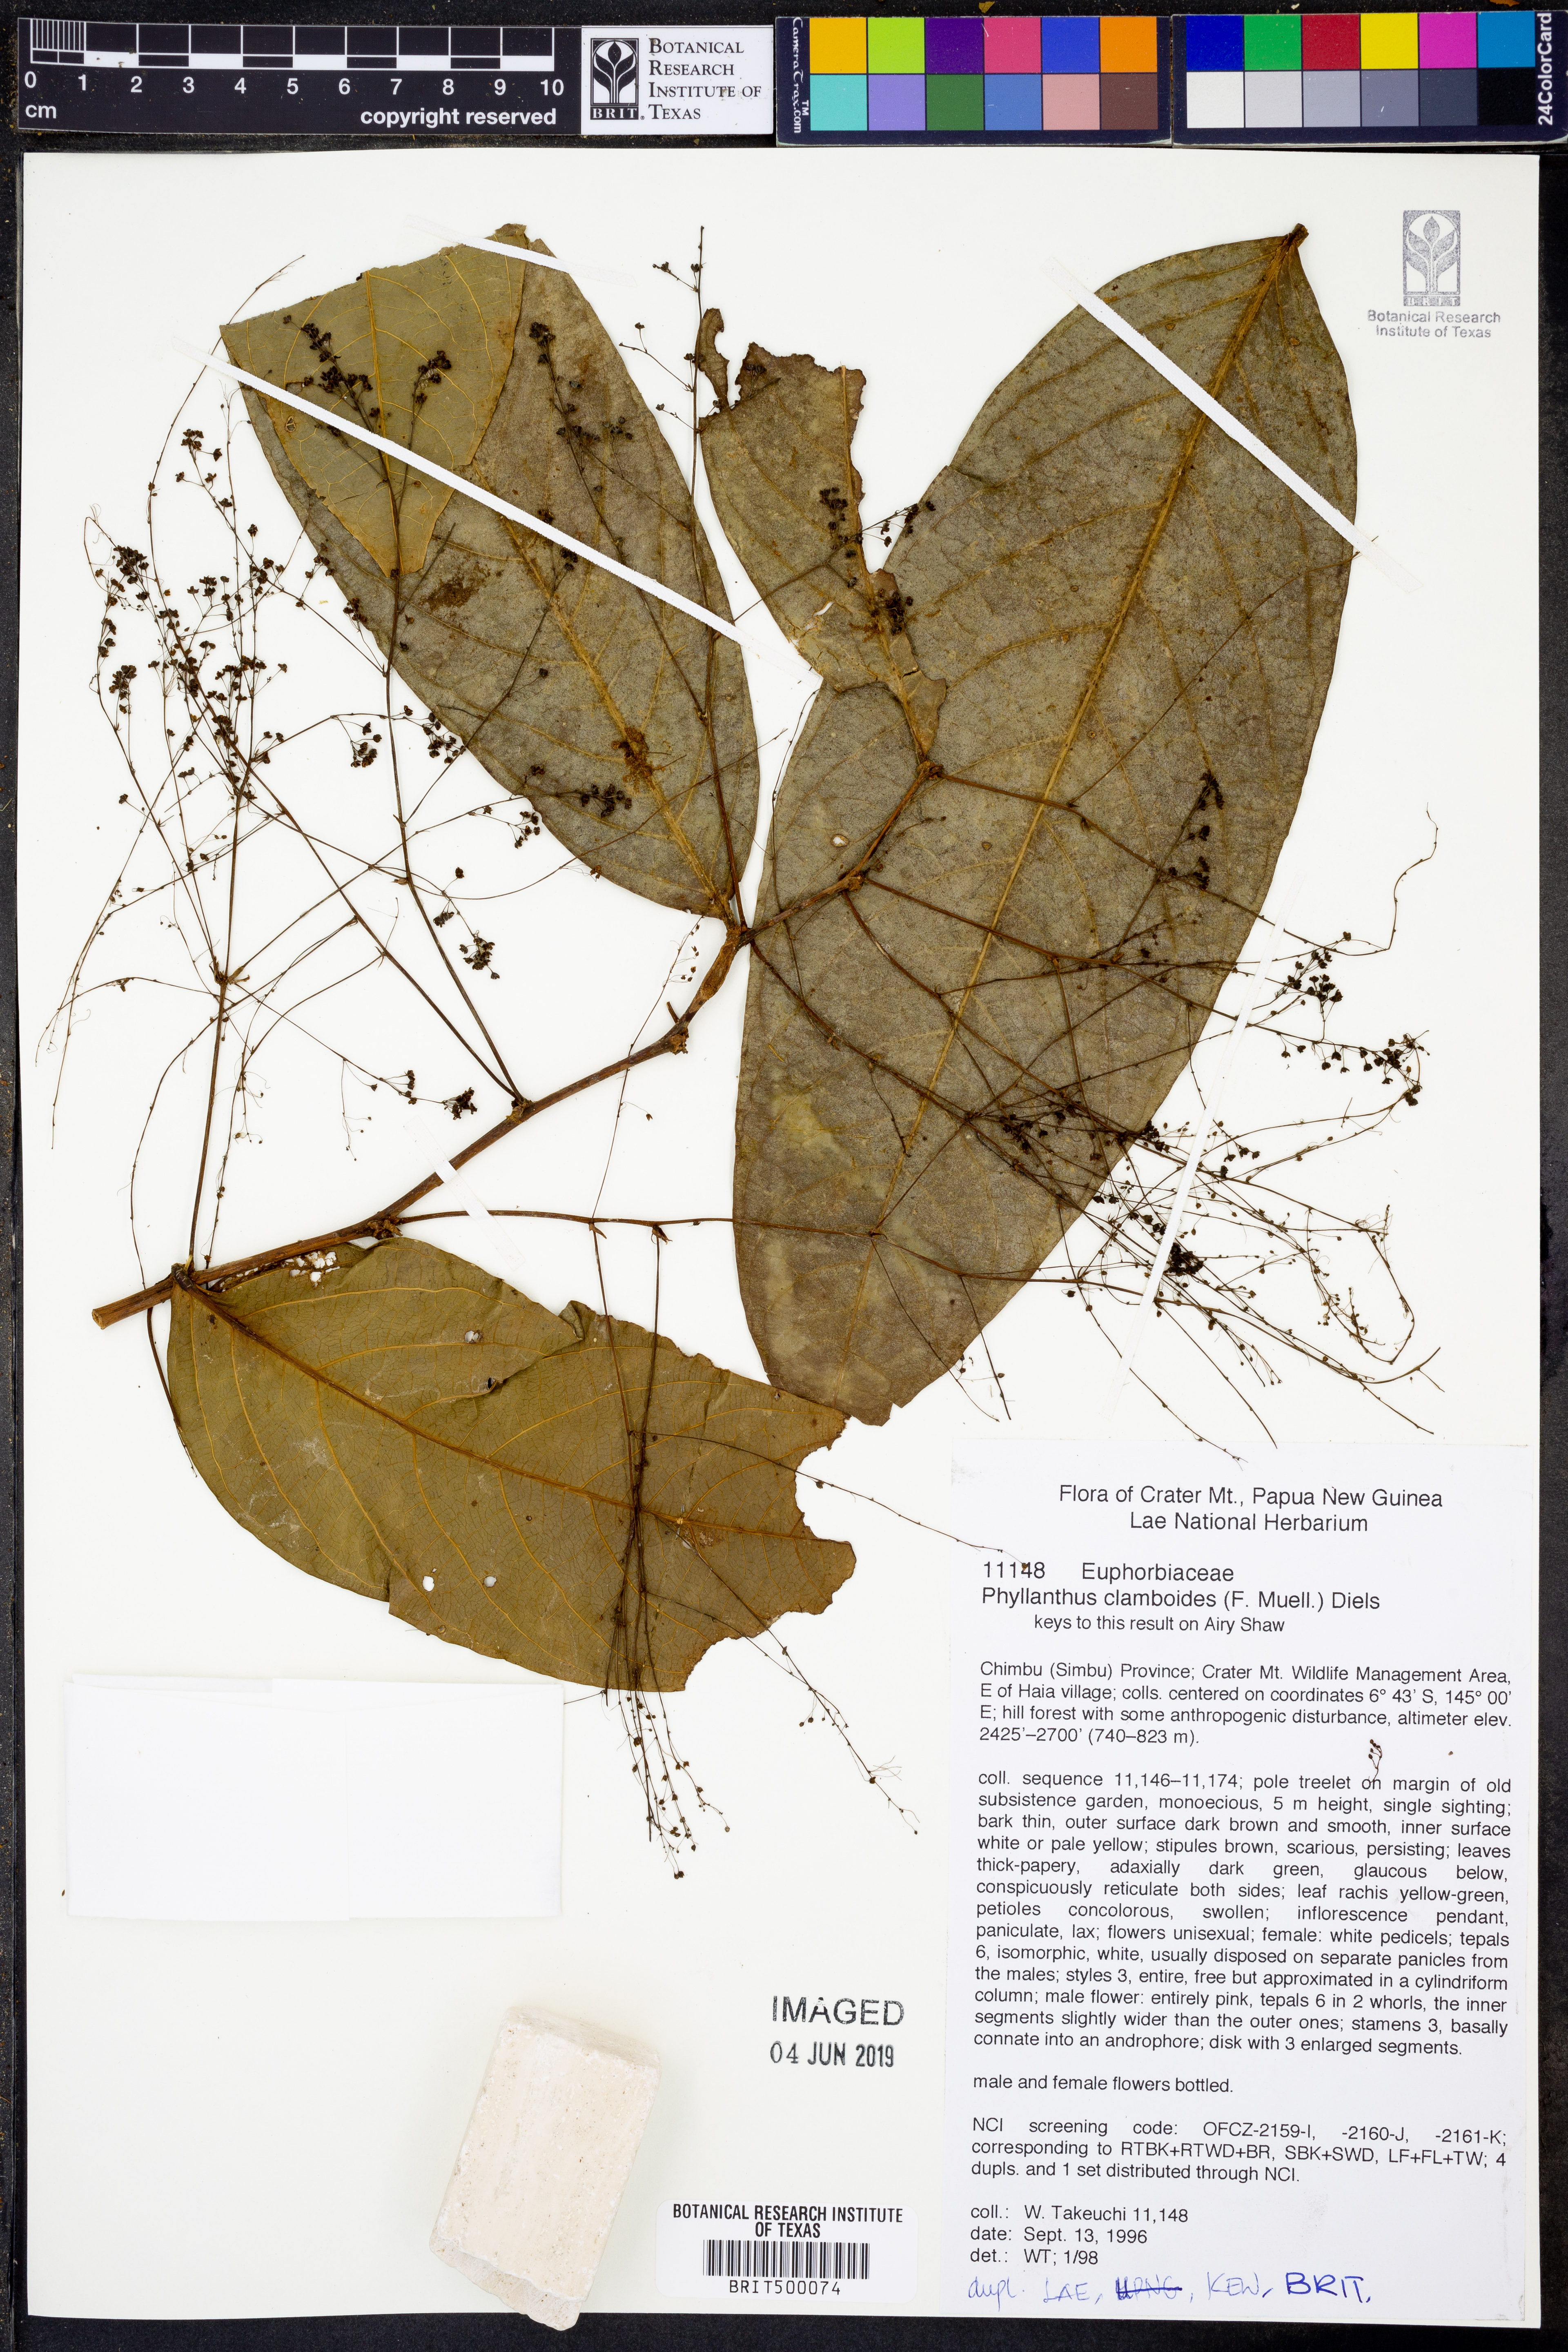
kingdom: Plantae
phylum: Tracheophyta
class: Magnoliopsida
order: Malpighiales
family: Phyllanthaceae
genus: Phyllanthus
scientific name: Phyllanthus clamboides
